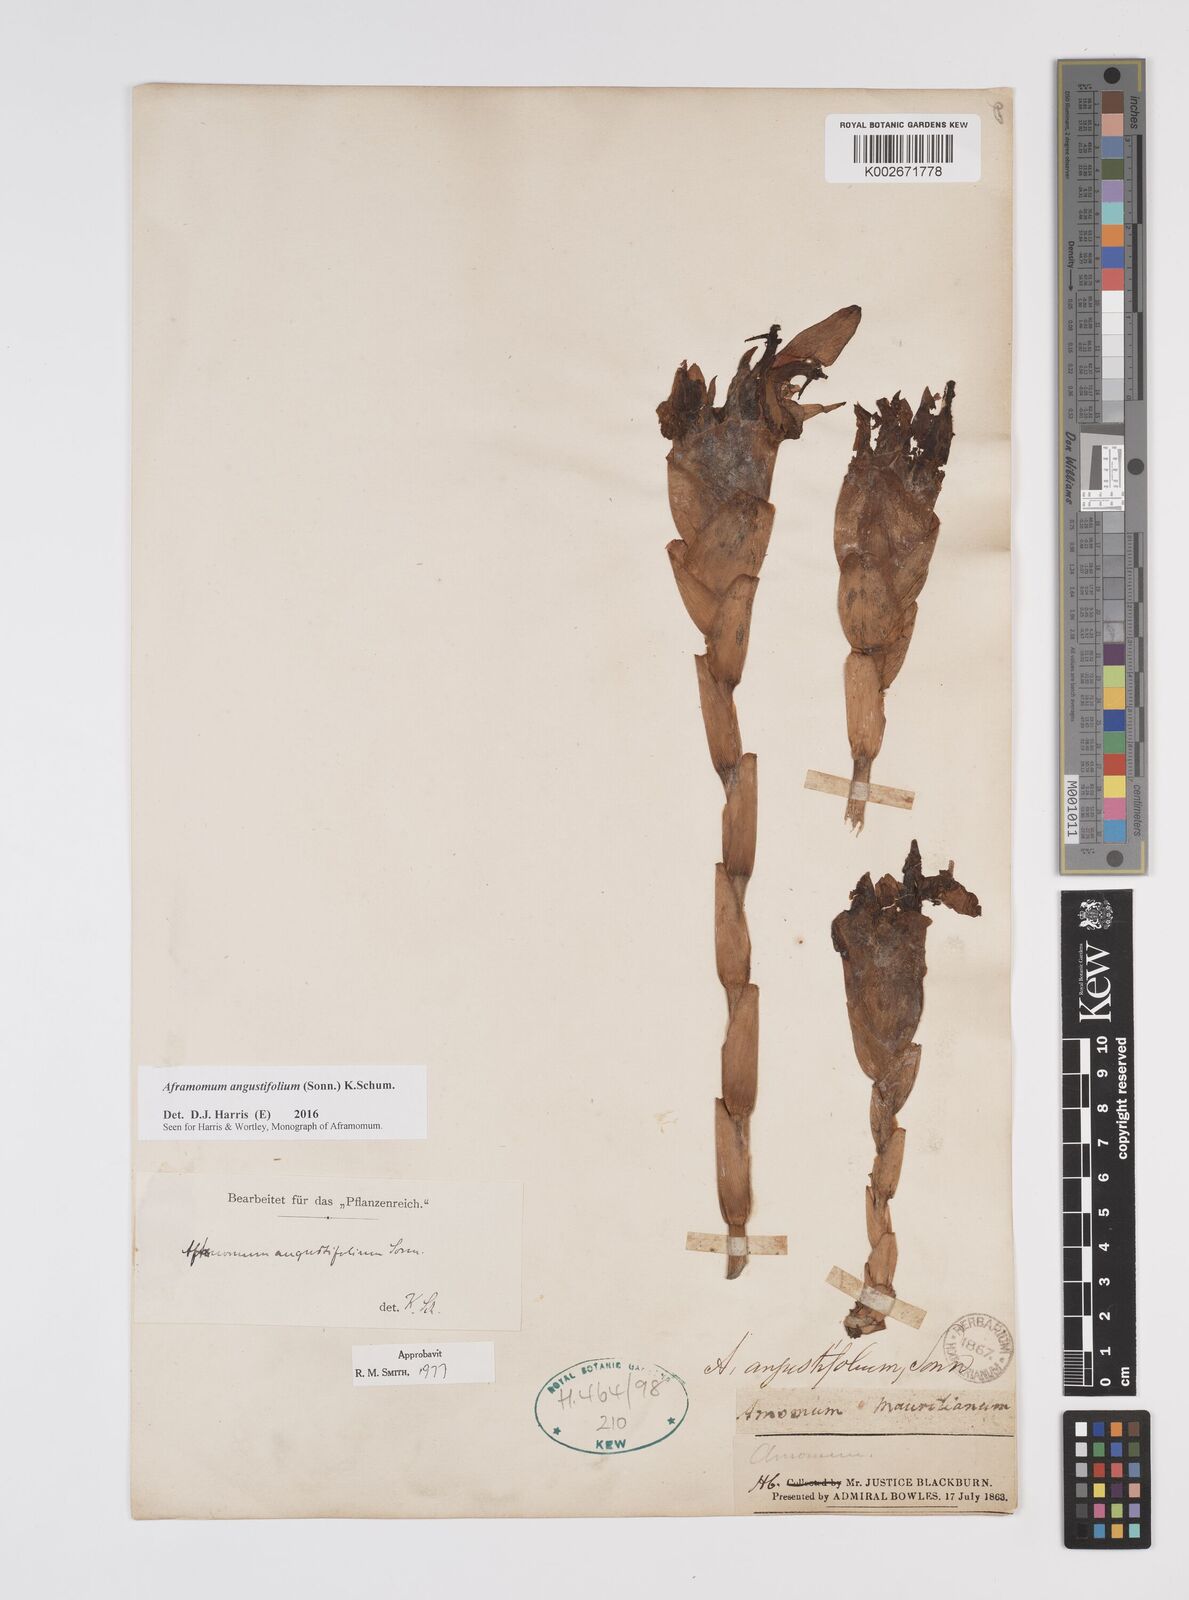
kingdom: Plantae
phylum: Tracheophyta
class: Liliopsida
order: Zingiberales
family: Zingiberaceae
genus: Aframomum
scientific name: Aframomum angustifolium
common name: Guinea grains
